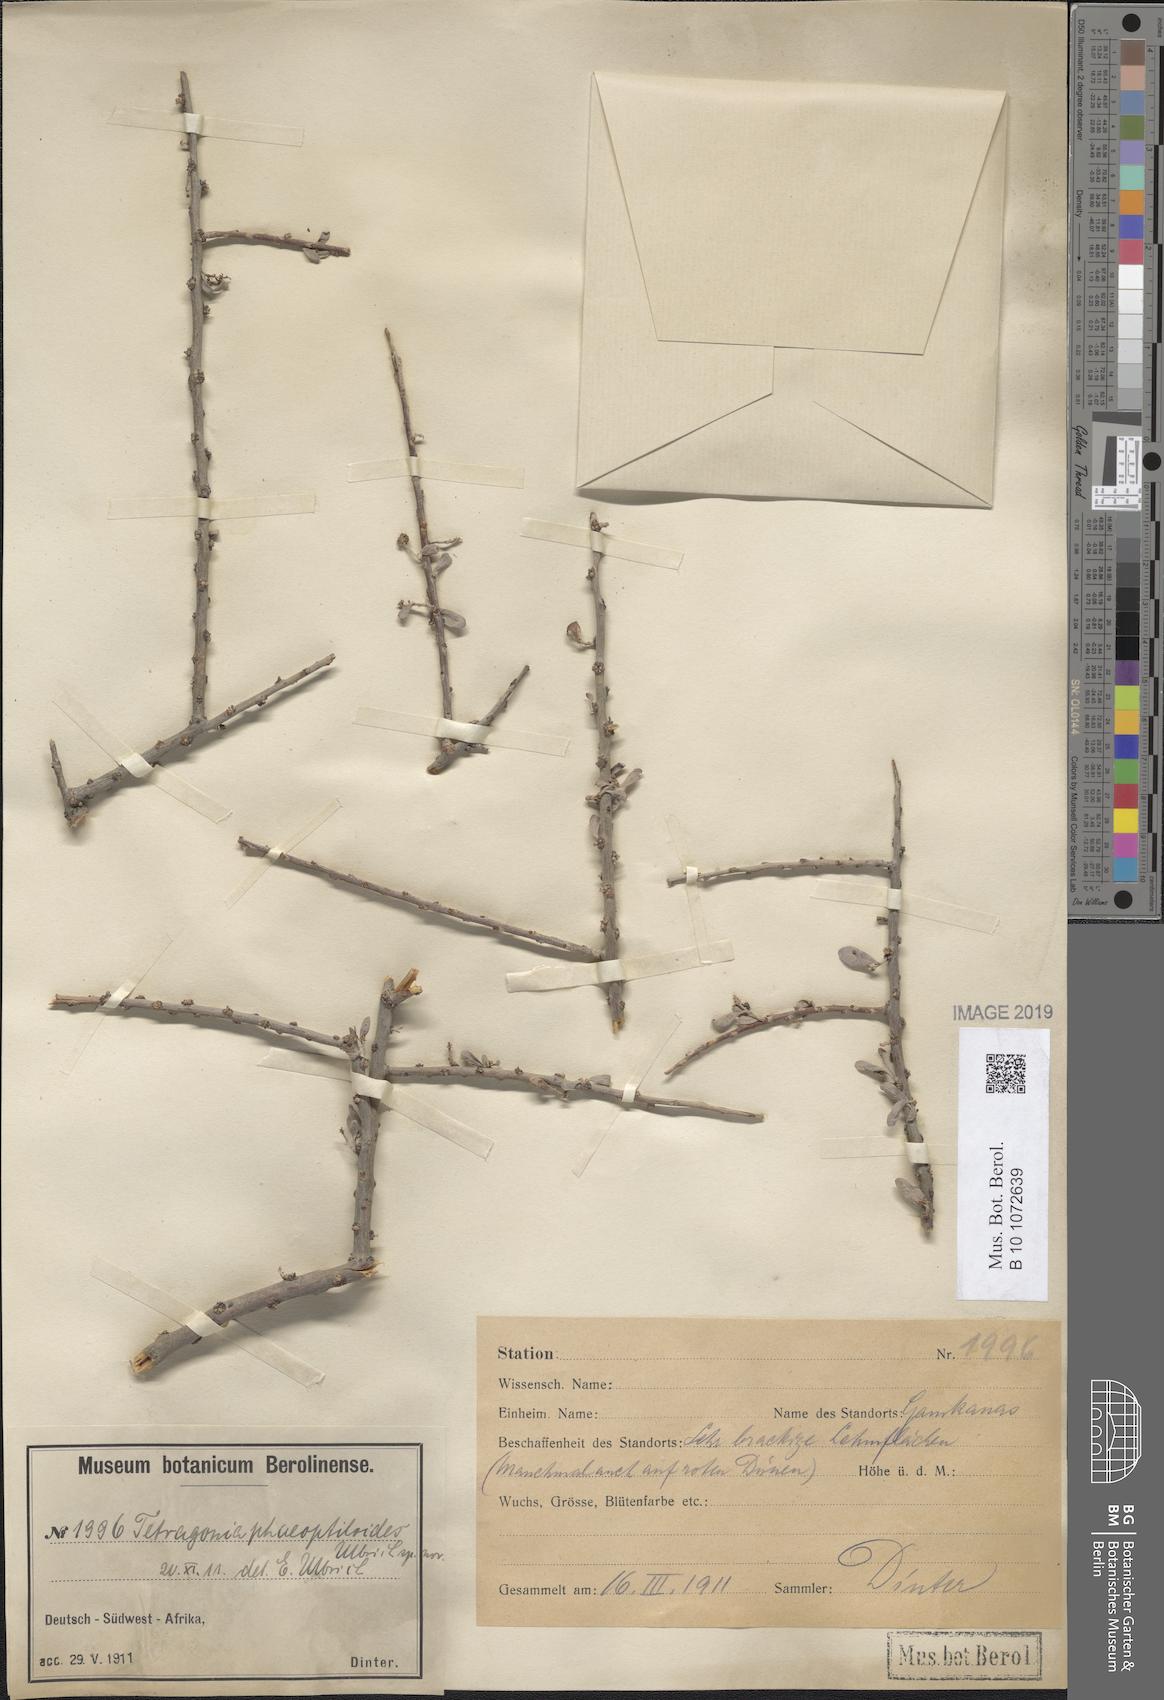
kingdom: Plantae
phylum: Tracheophyta
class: Magnoliopsida
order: Caryophyllales
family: Aizoaceae
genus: Tetragonia
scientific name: Tetragonia
